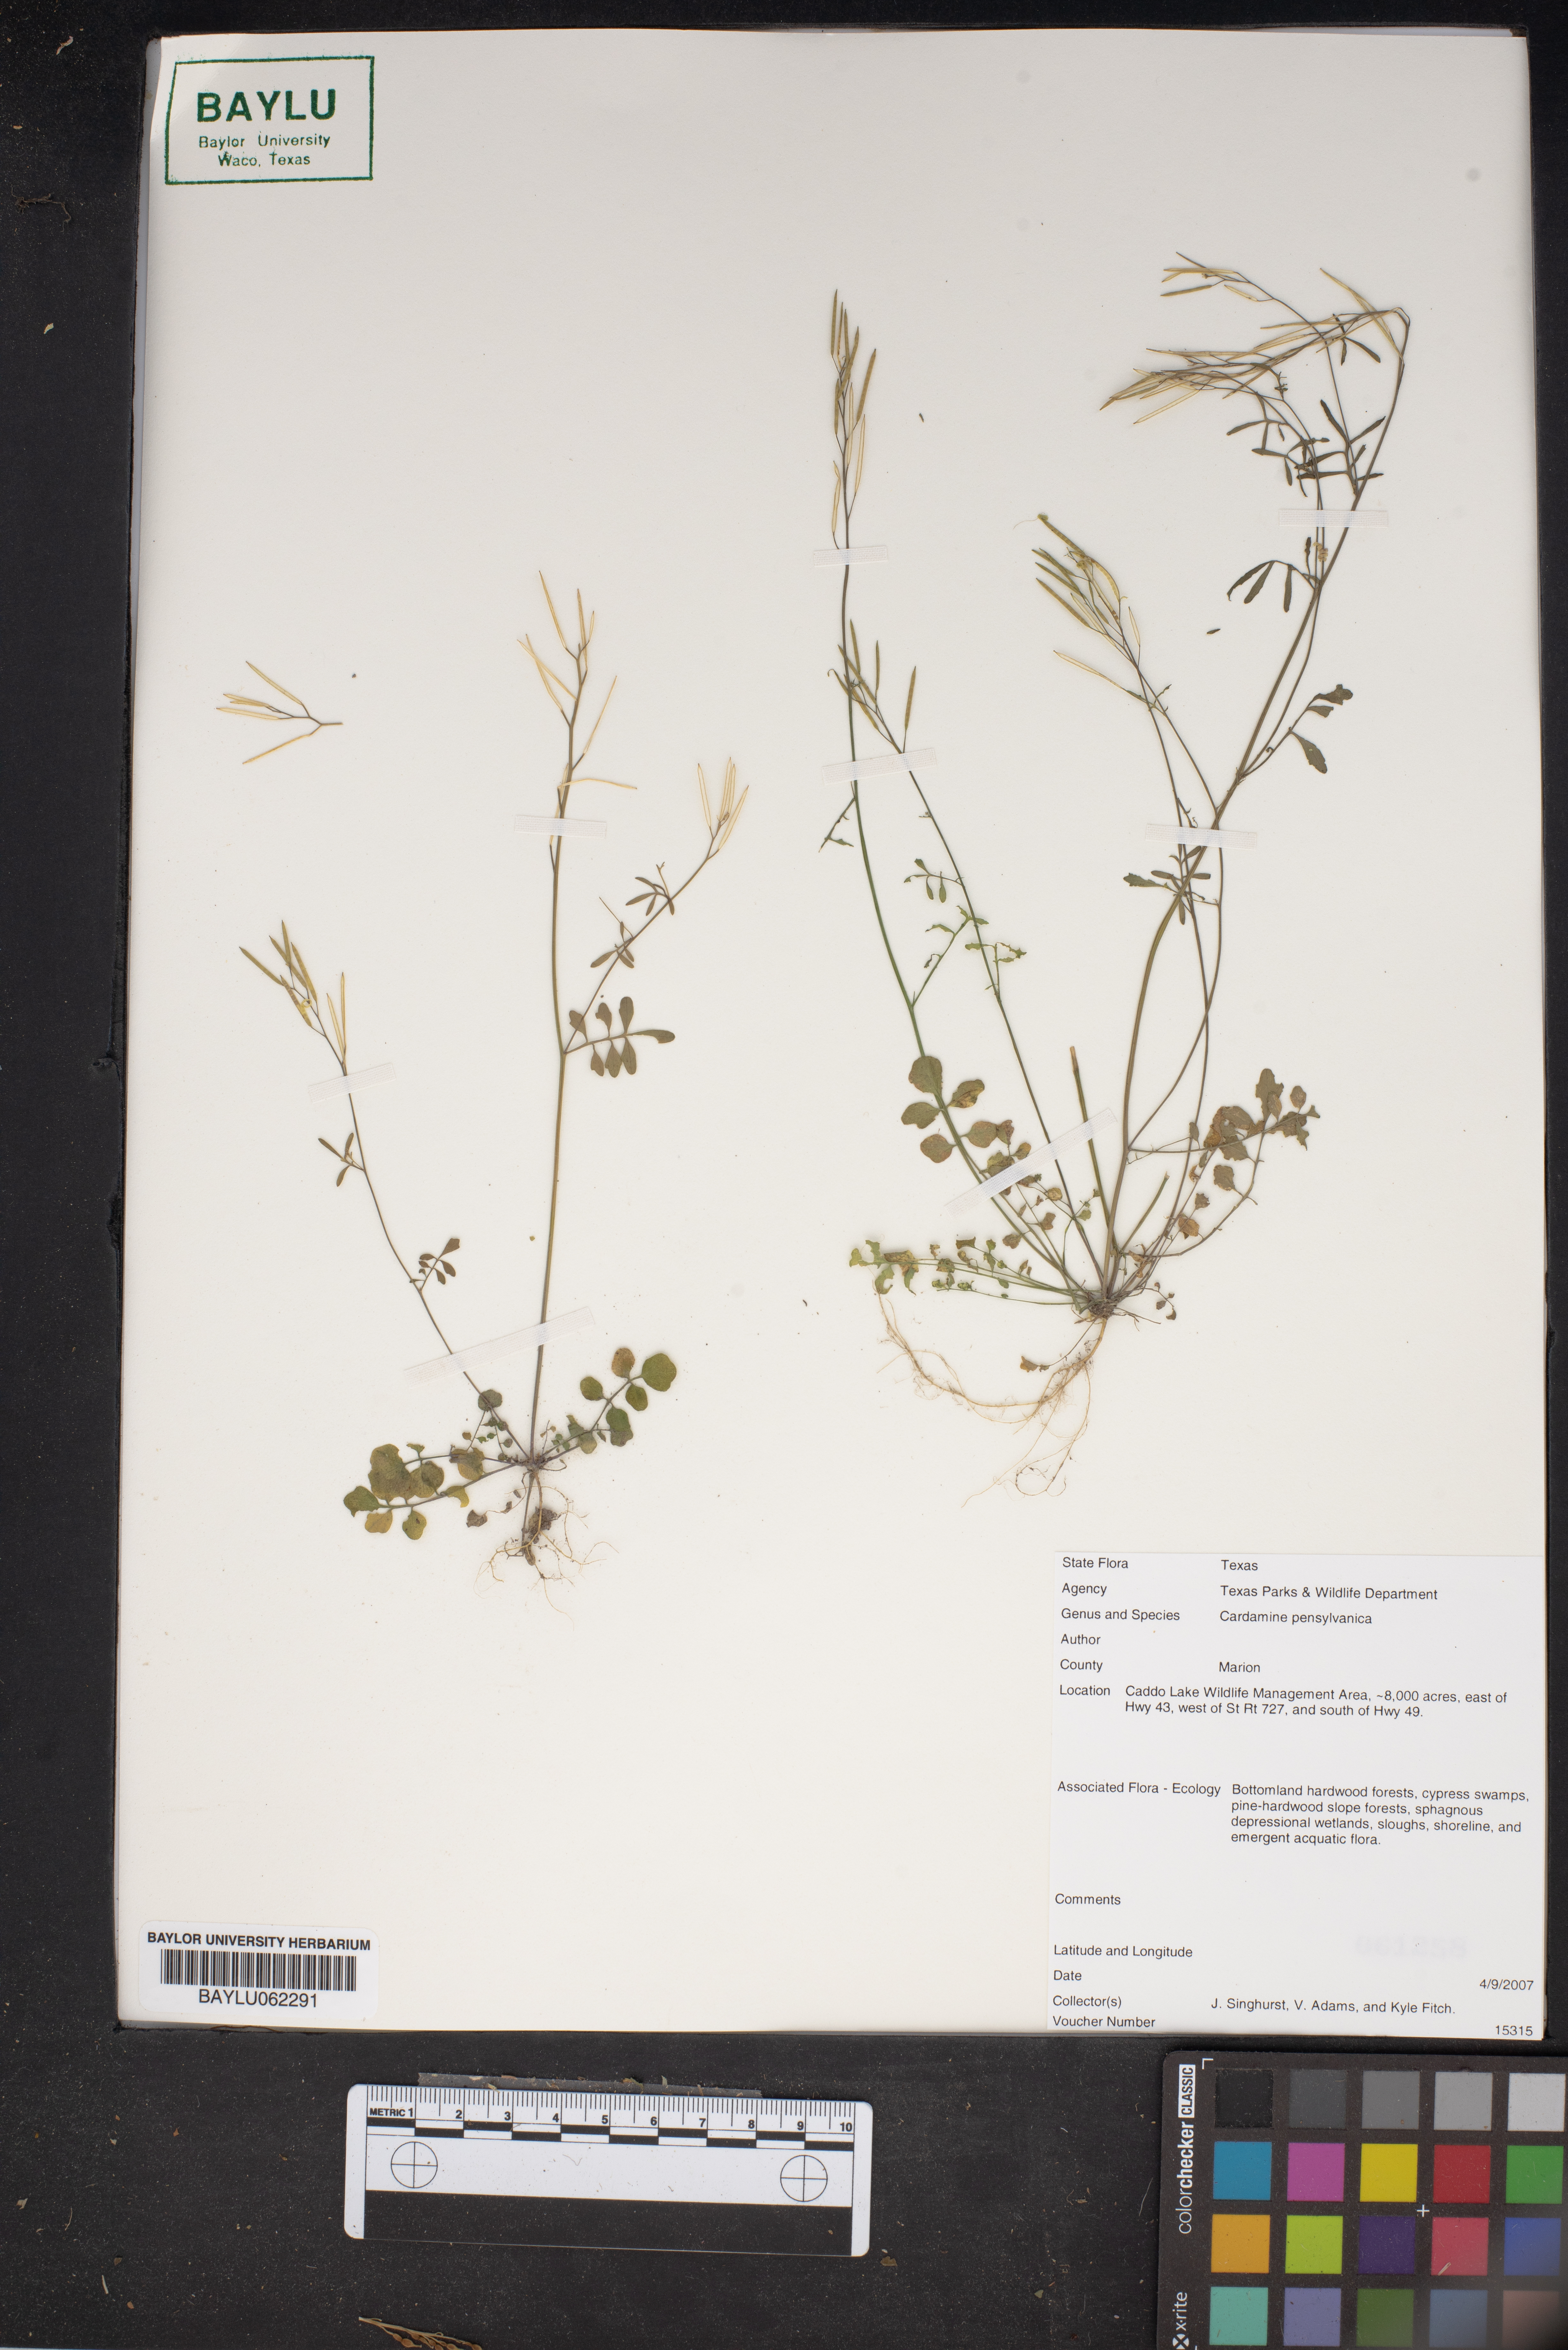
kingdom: Plantae
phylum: Tracheophyta
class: Magnoliopsida
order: Brassicales
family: Brassicaceae
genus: Cardamine
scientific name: Cardamine pensylvanica
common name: Pennsylvania bittercress
